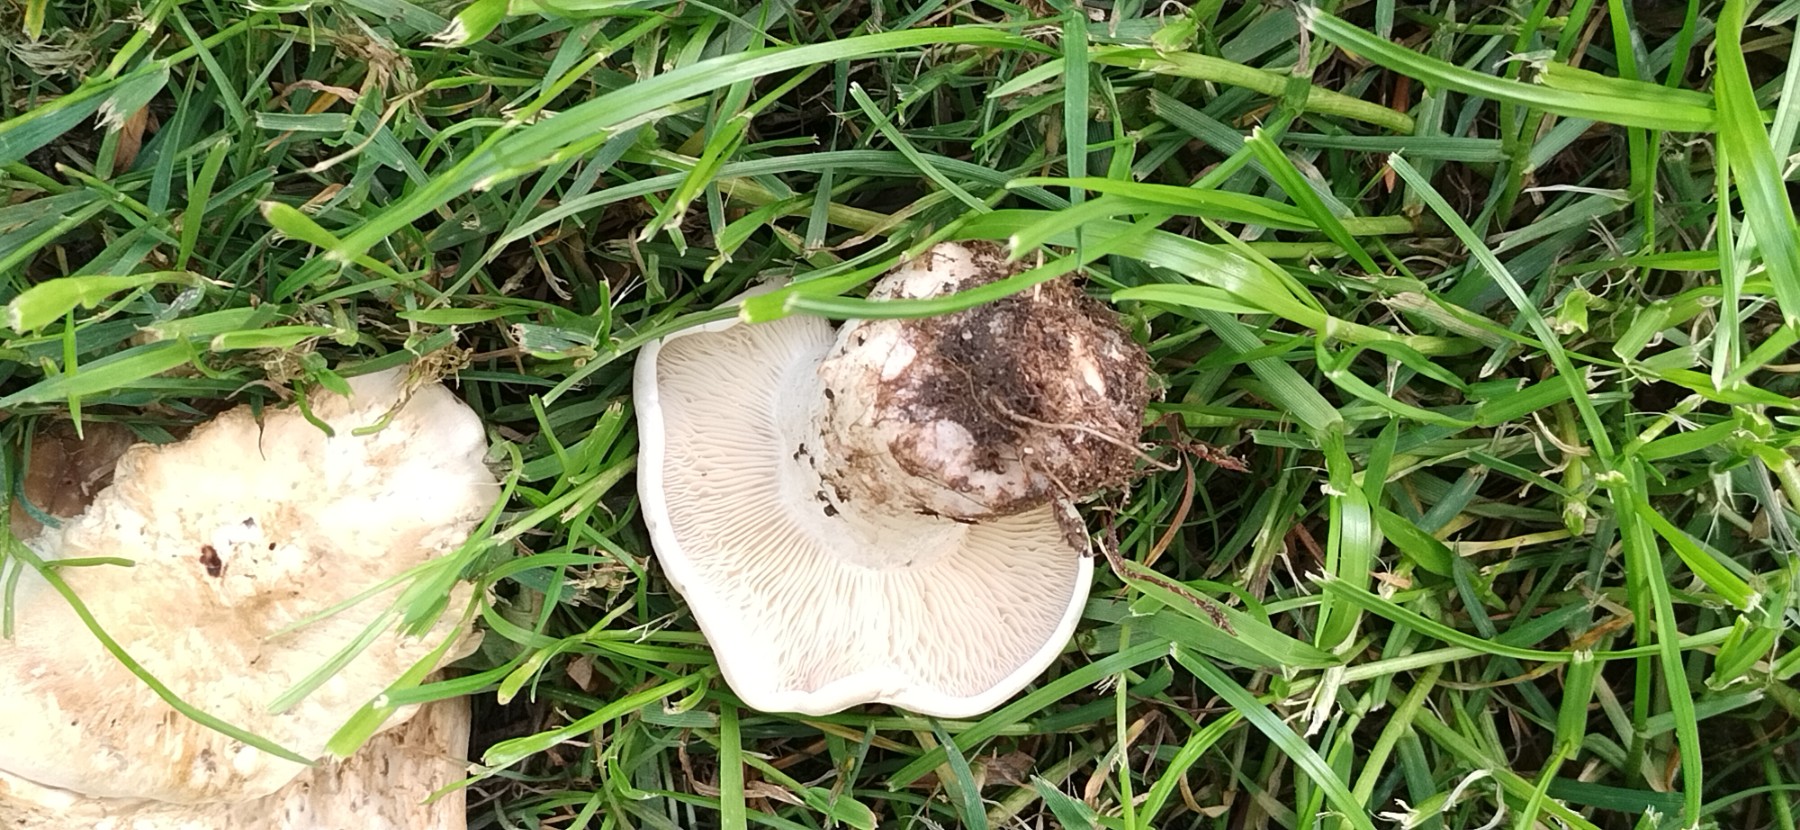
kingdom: Fungi
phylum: Basidiomycota
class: Agaricomycetes
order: Agaricales
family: Lyophyllaceae
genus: Calocybe
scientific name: Calocybe gambosa
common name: vårmusseron
